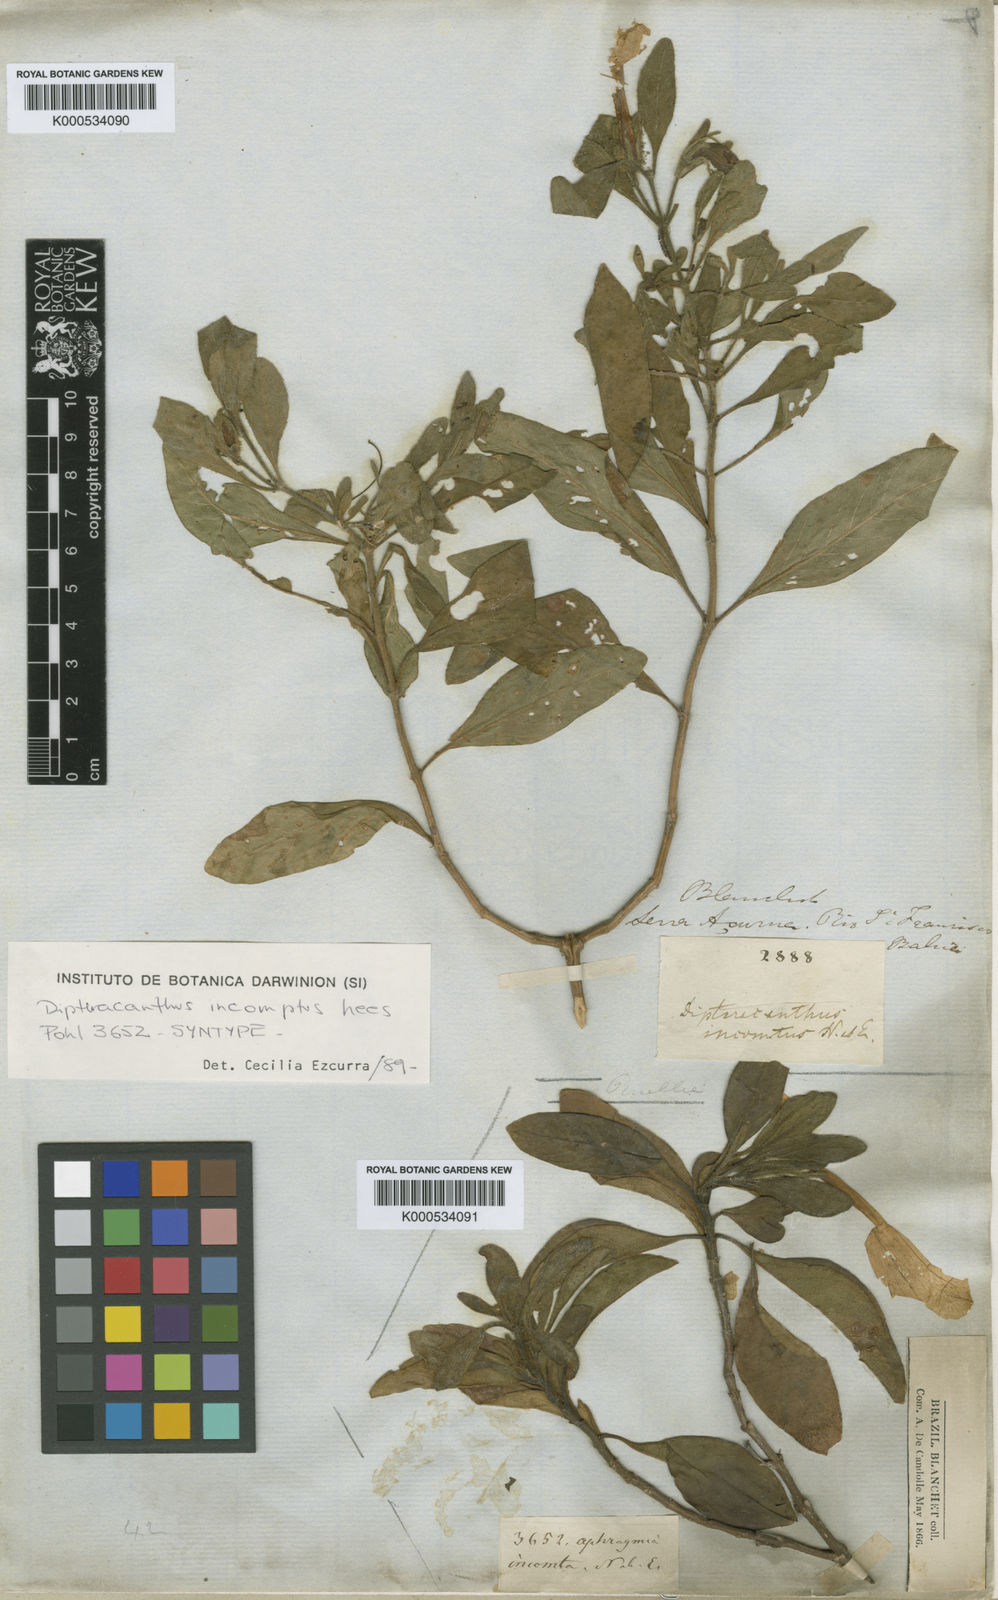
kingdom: Plantae
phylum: Tracheophyta
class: Magnoliopsida
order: Lamiales
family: Acanthaceae
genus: Ruellia
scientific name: Ruellia laxa
